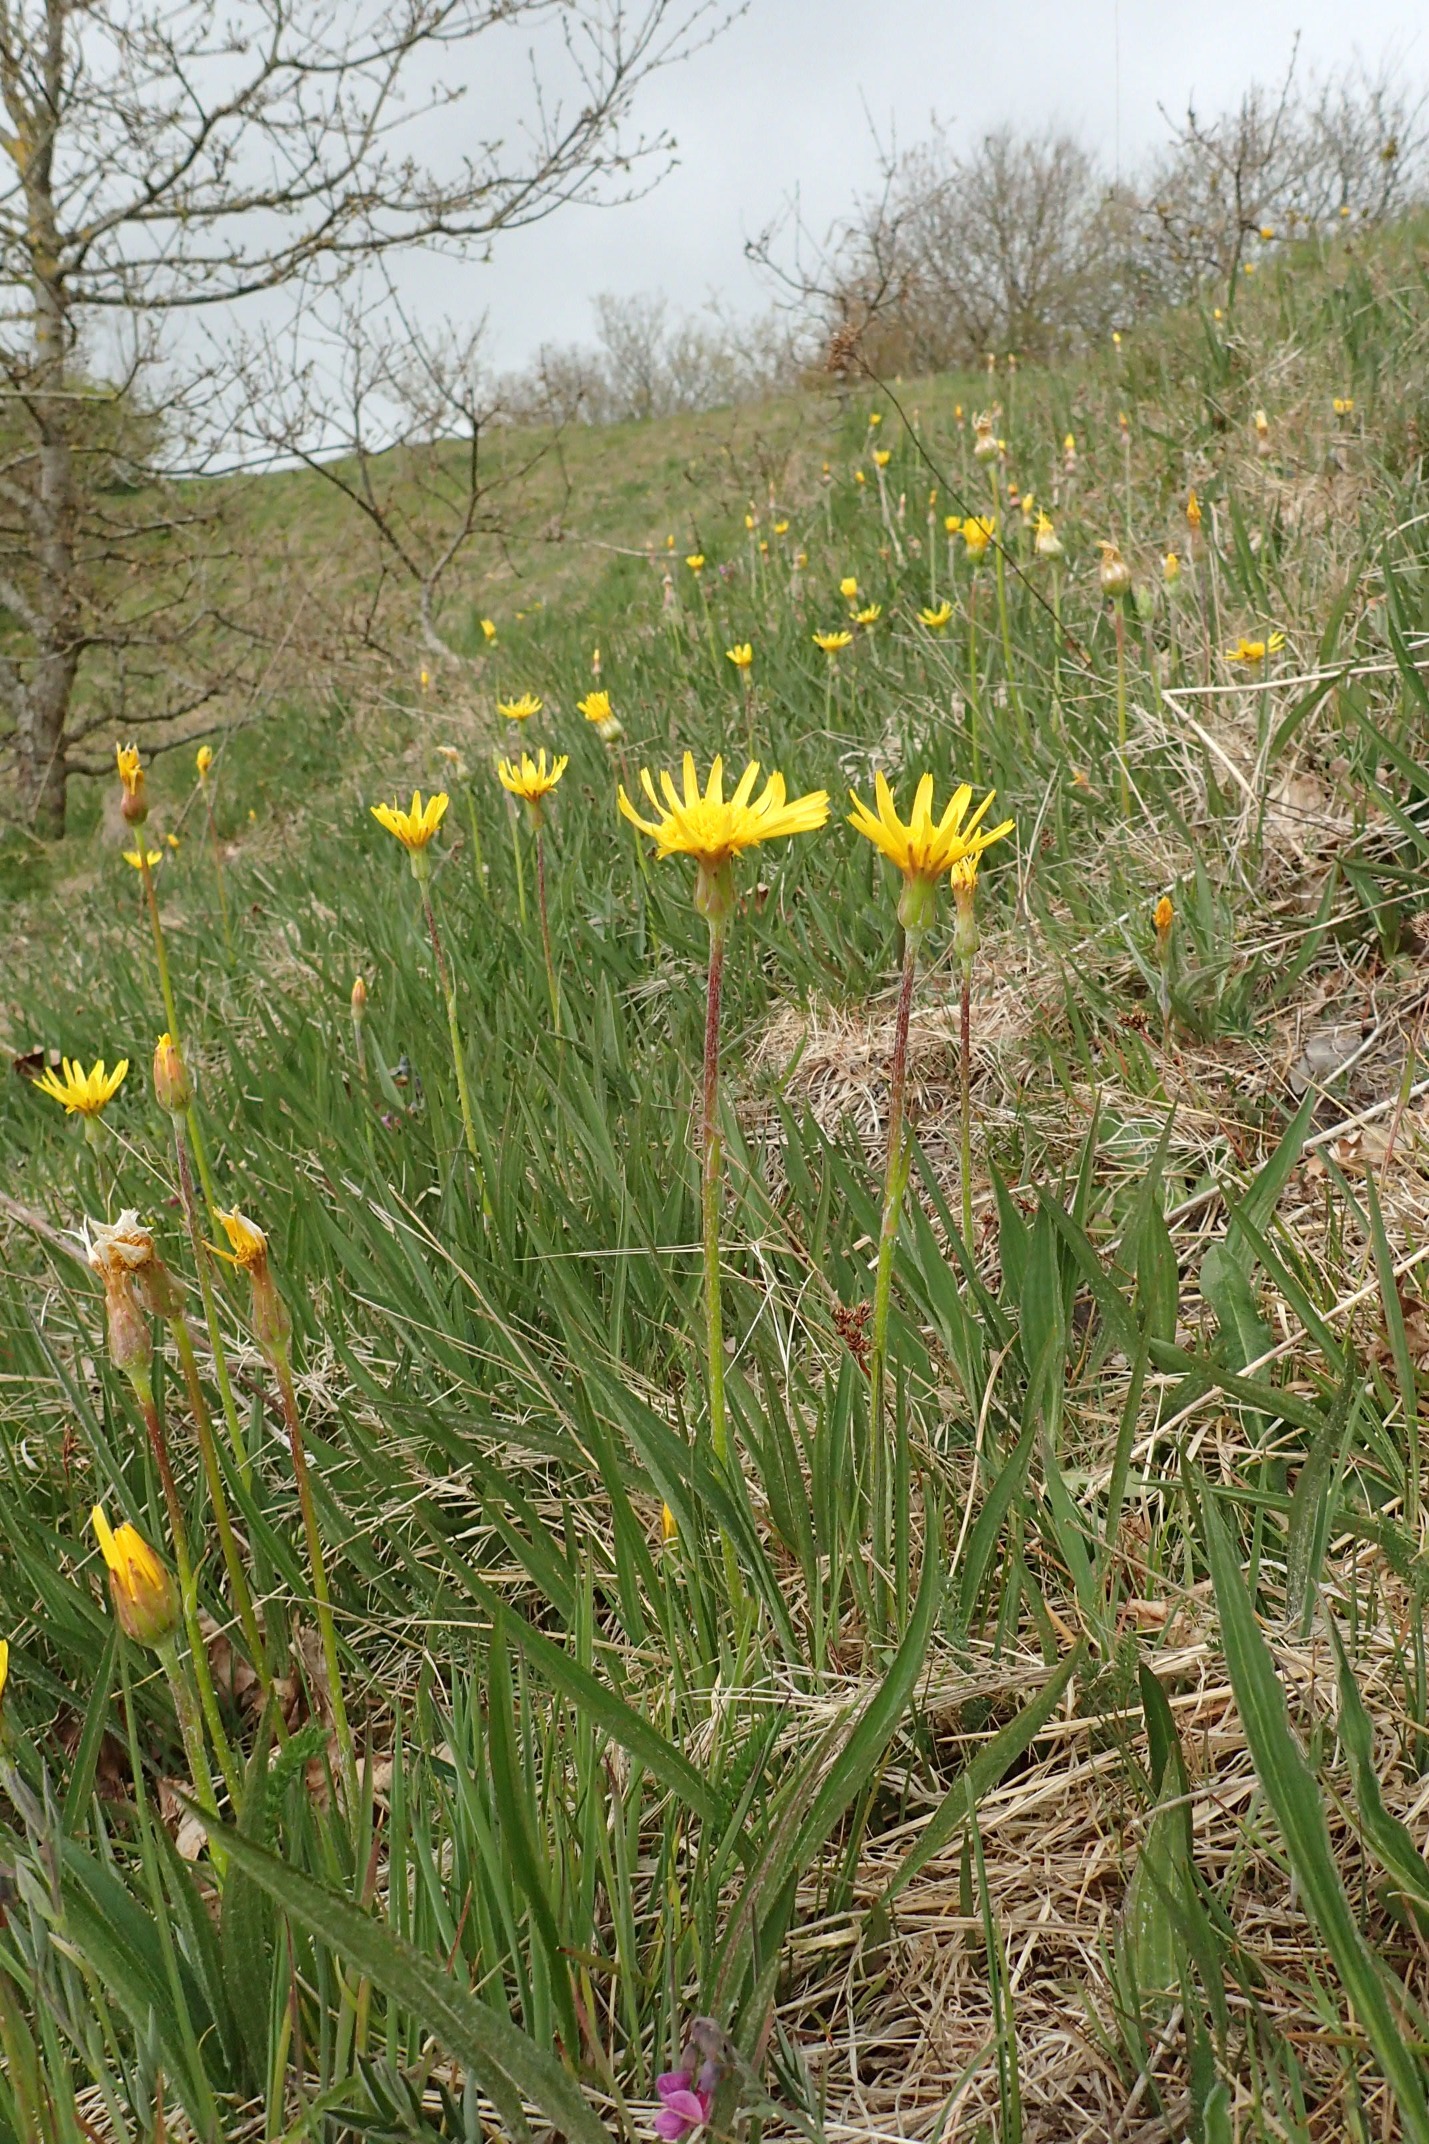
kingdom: Plantae
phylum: Tracheophyta
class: Magnoliopsida
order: Asterales
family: Asteraceae
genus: Scorzonera
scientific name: Scorzonera humilis
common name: Lav skorsoner
